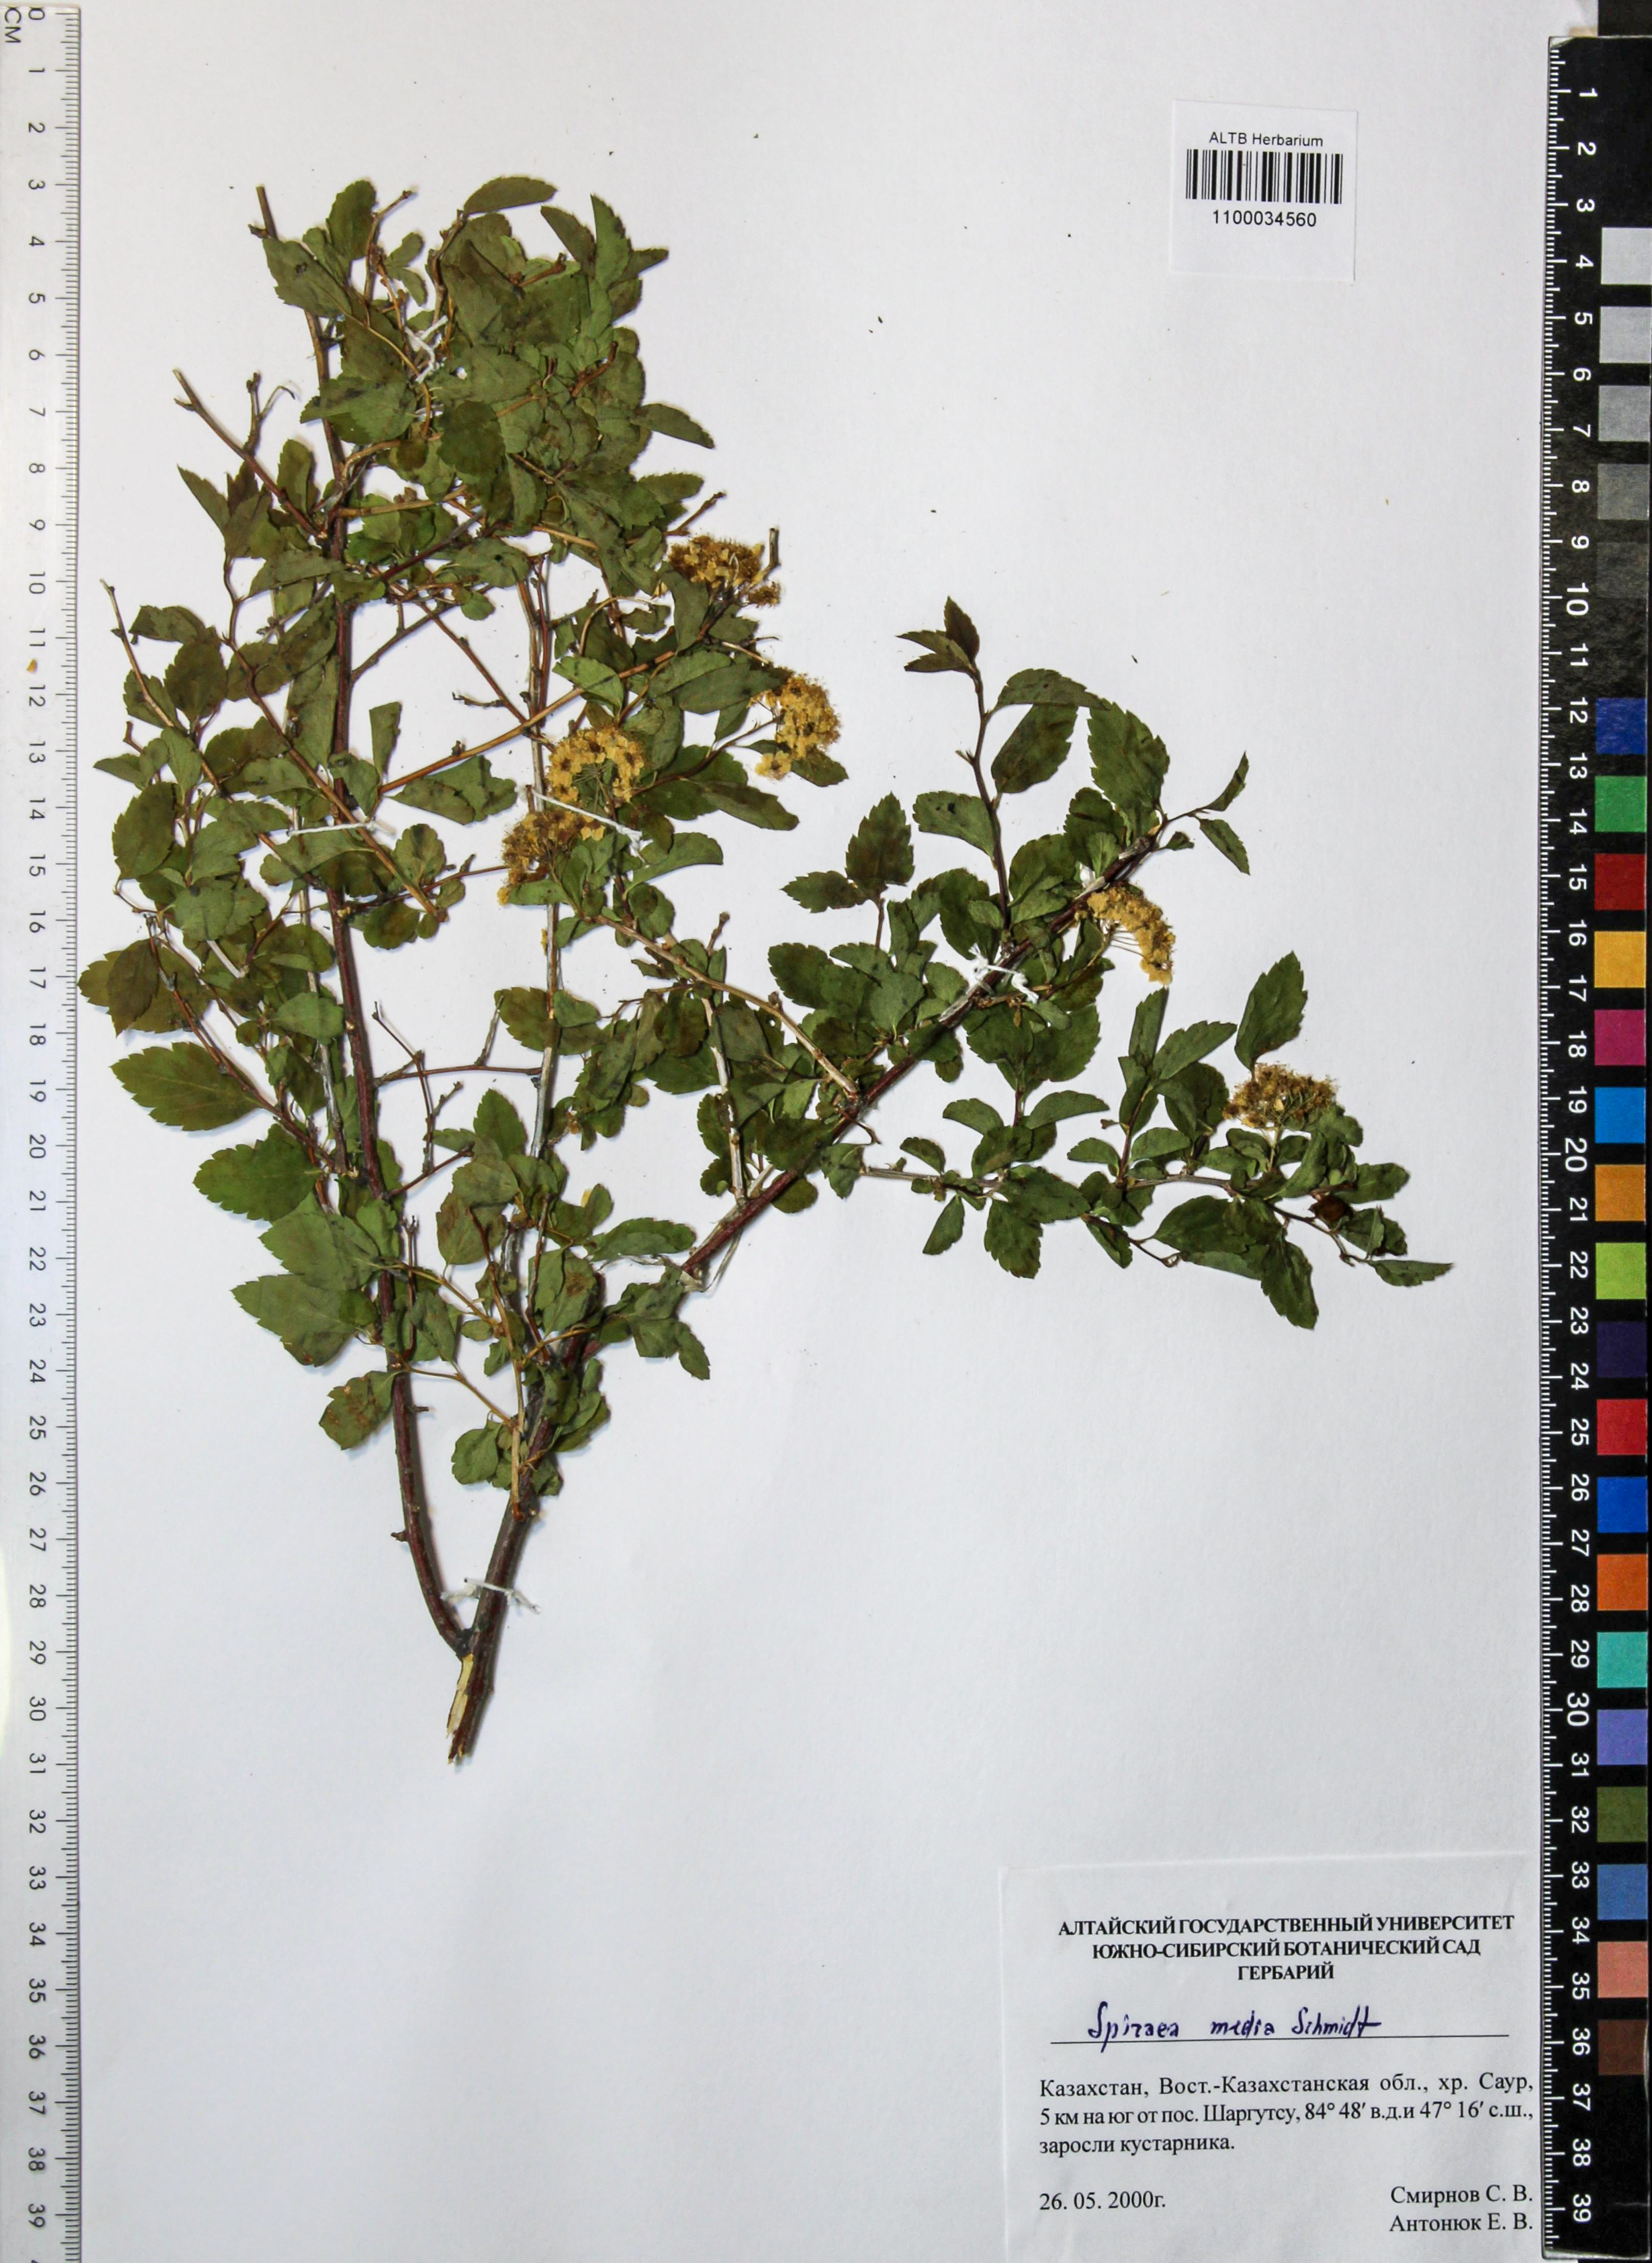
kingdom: Plantae
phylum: Tracheophyta
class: Magnoliopsida
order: Rosales
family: Rosaceae
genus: Spiraea
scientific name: Spiraea media
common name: Russian spiraea
